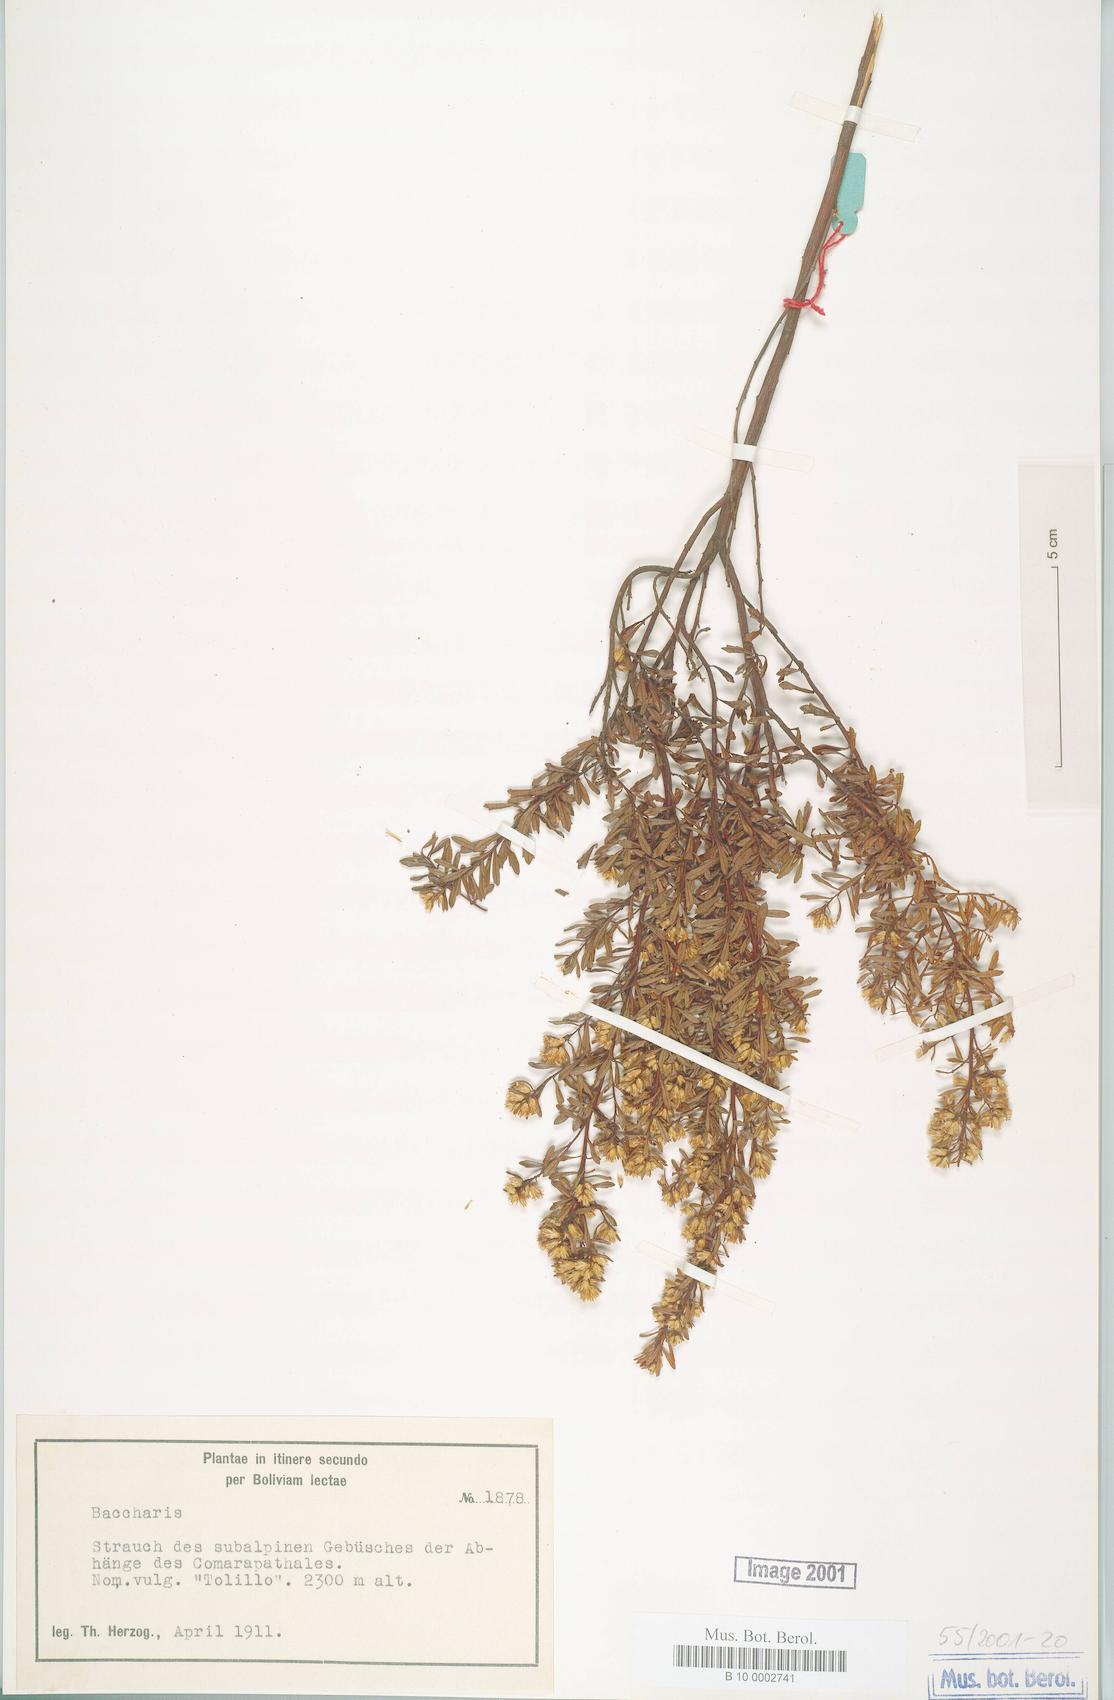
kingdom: Plantae
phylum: Tracheophyta
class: Magnoliopsida
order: Asterales
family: Asteraceae
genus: Baccharis
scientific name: Baccharis
